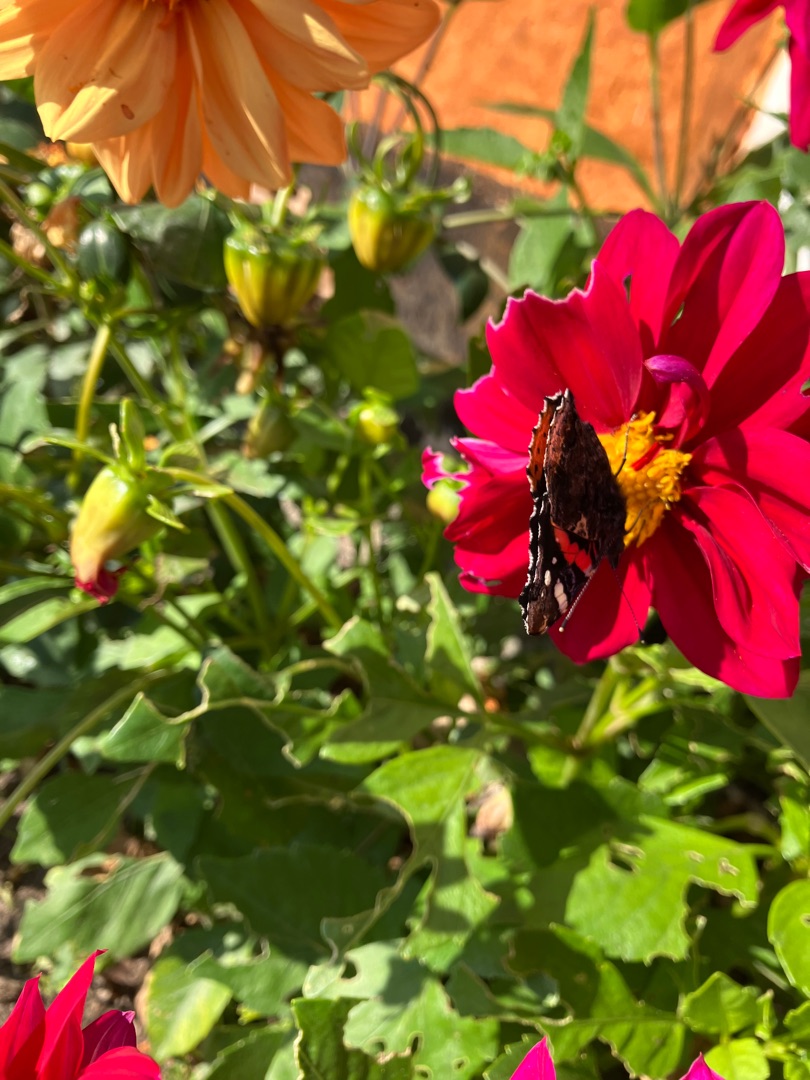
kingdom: Animalia
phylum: Arthropoda
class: Insecta
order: Lepidoptera
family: Nymphalidae
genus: Vanessa
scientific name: Vanessa atalanta
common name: Admiral
